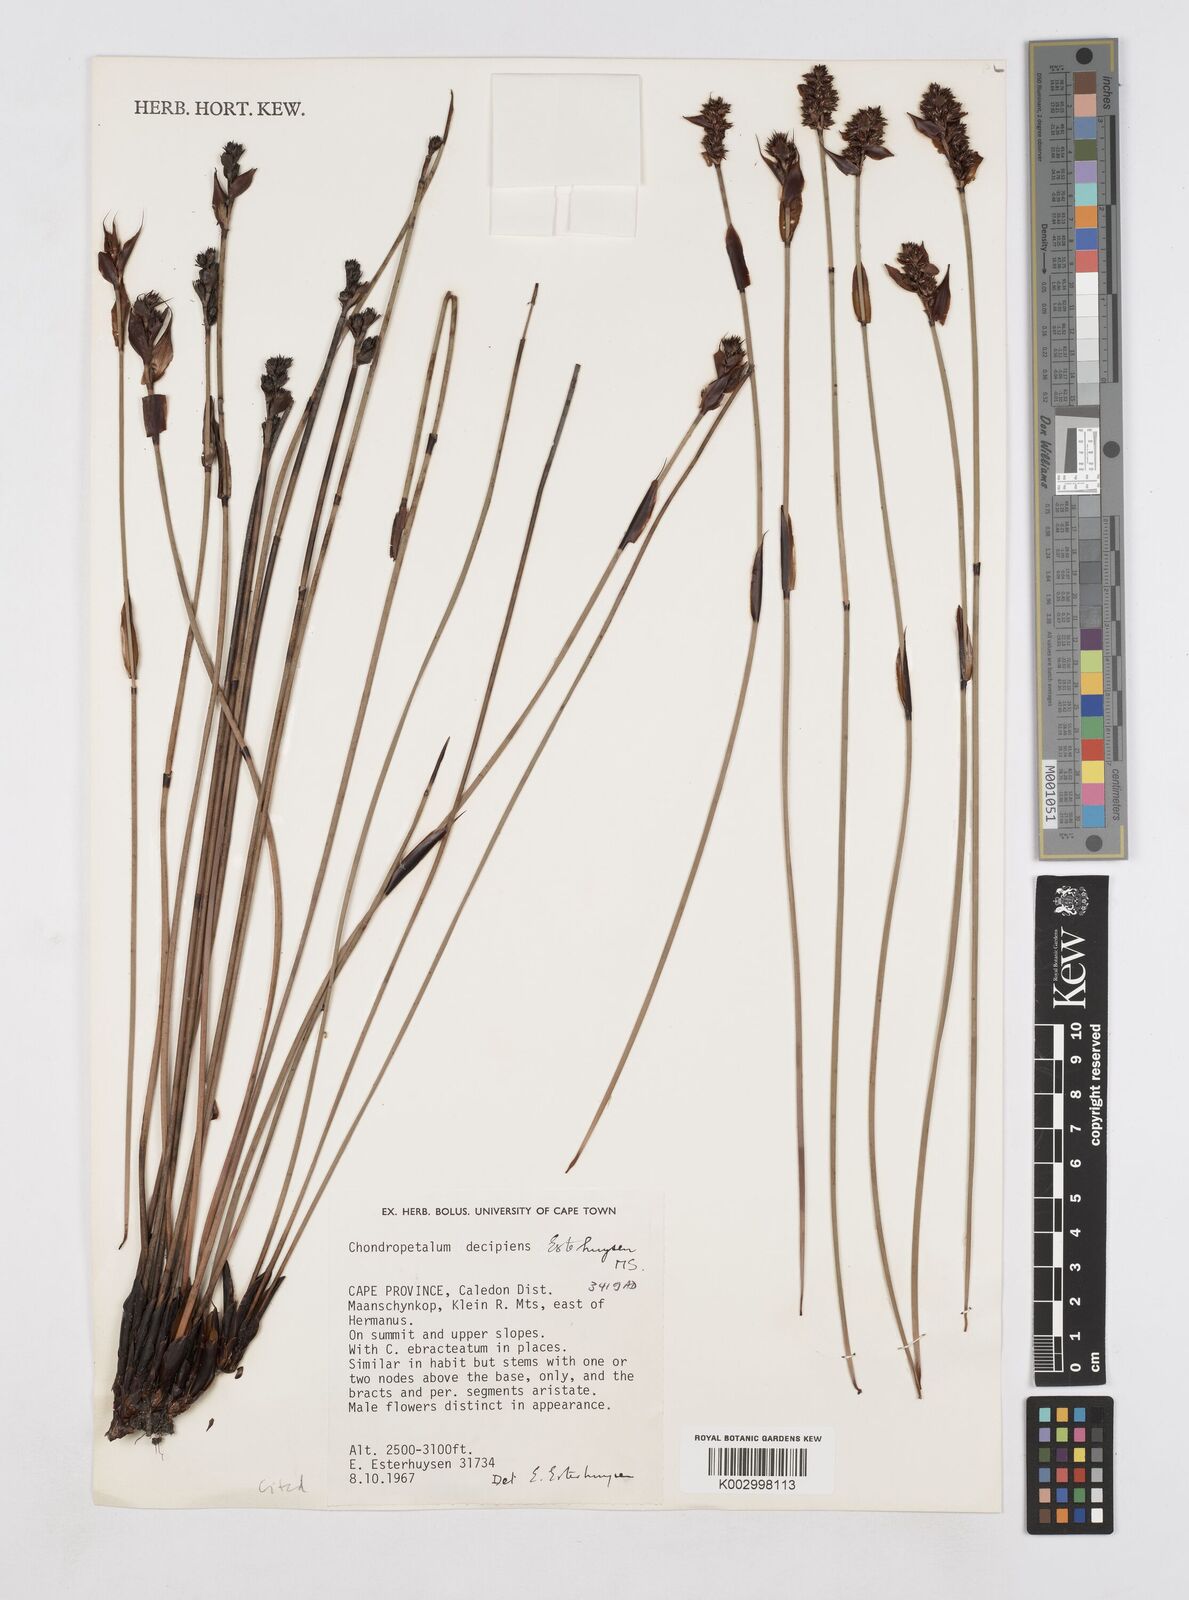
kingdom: Plantae
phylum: Tracheophyta
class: Liliopsida
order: Poales
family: Restionaceae
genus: Elegia
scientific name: Elegia
